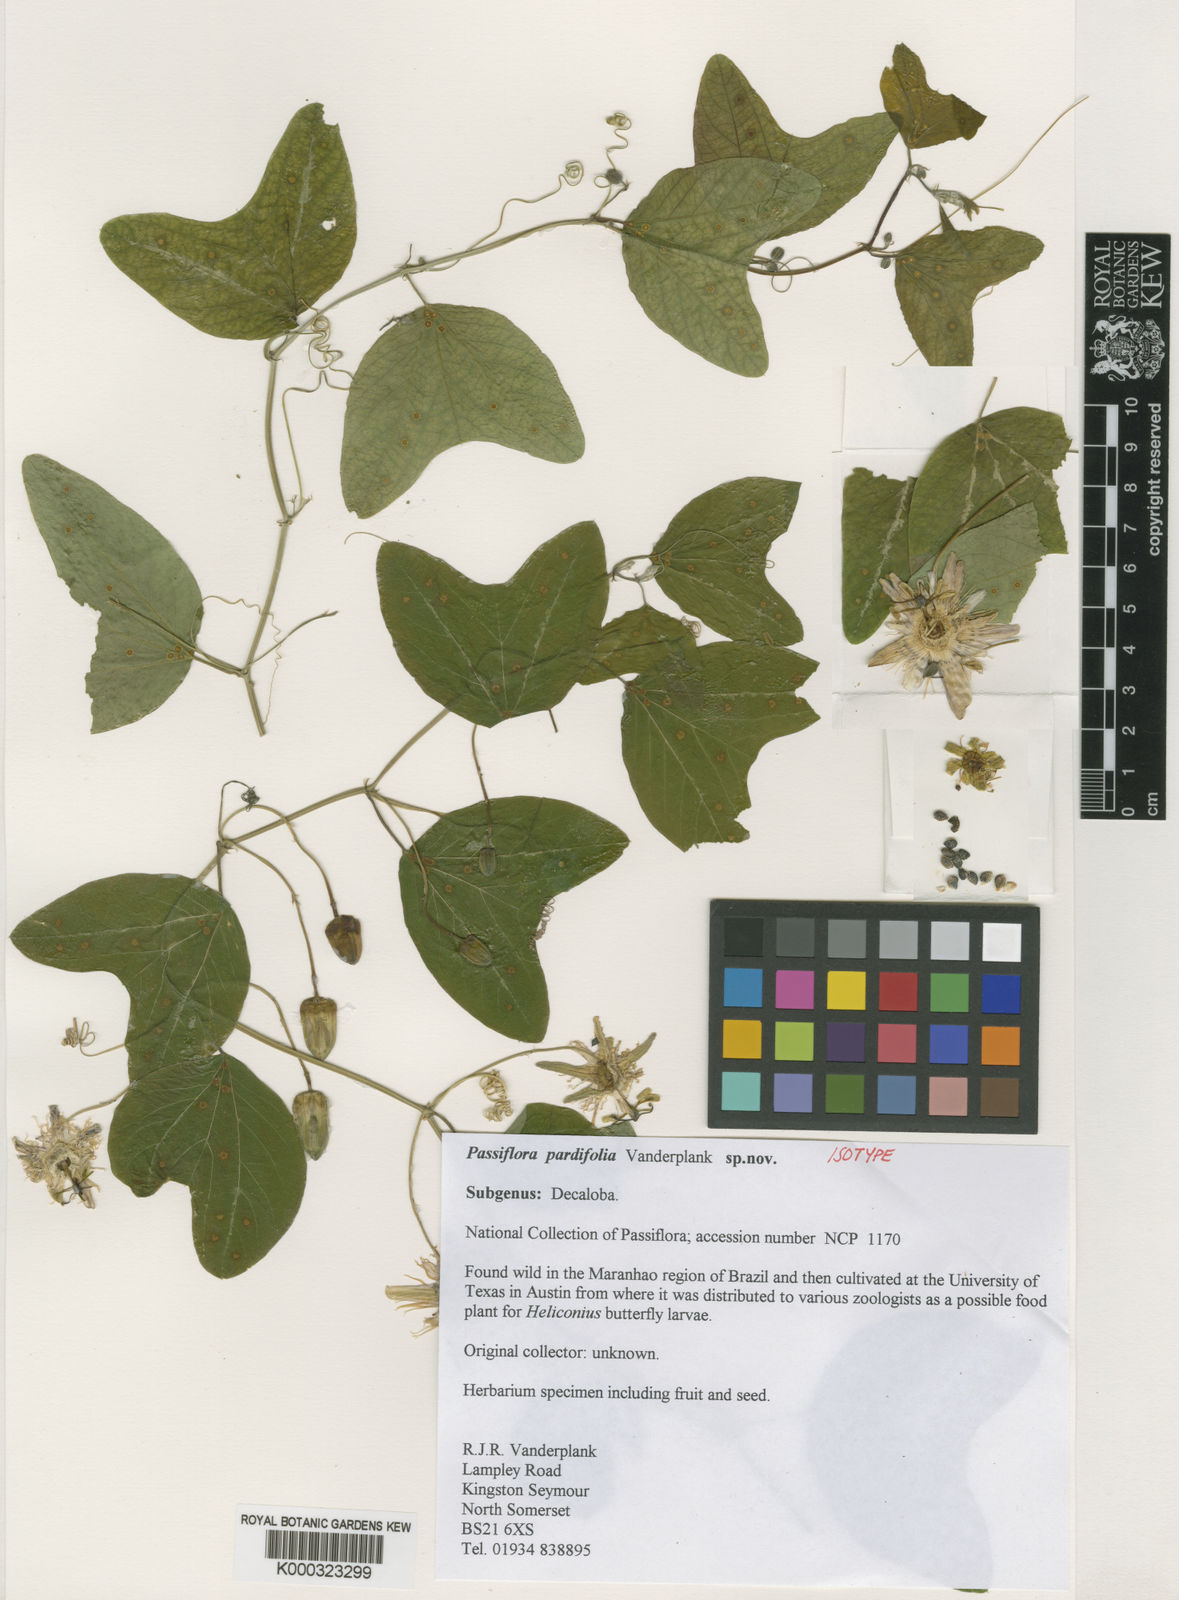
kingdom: Plantae
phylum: Tracheophyta
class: Magnoliopsida
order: Malpighiales
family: Passifloraceae
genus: Passiflora
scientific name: Passiflora pardifolia
